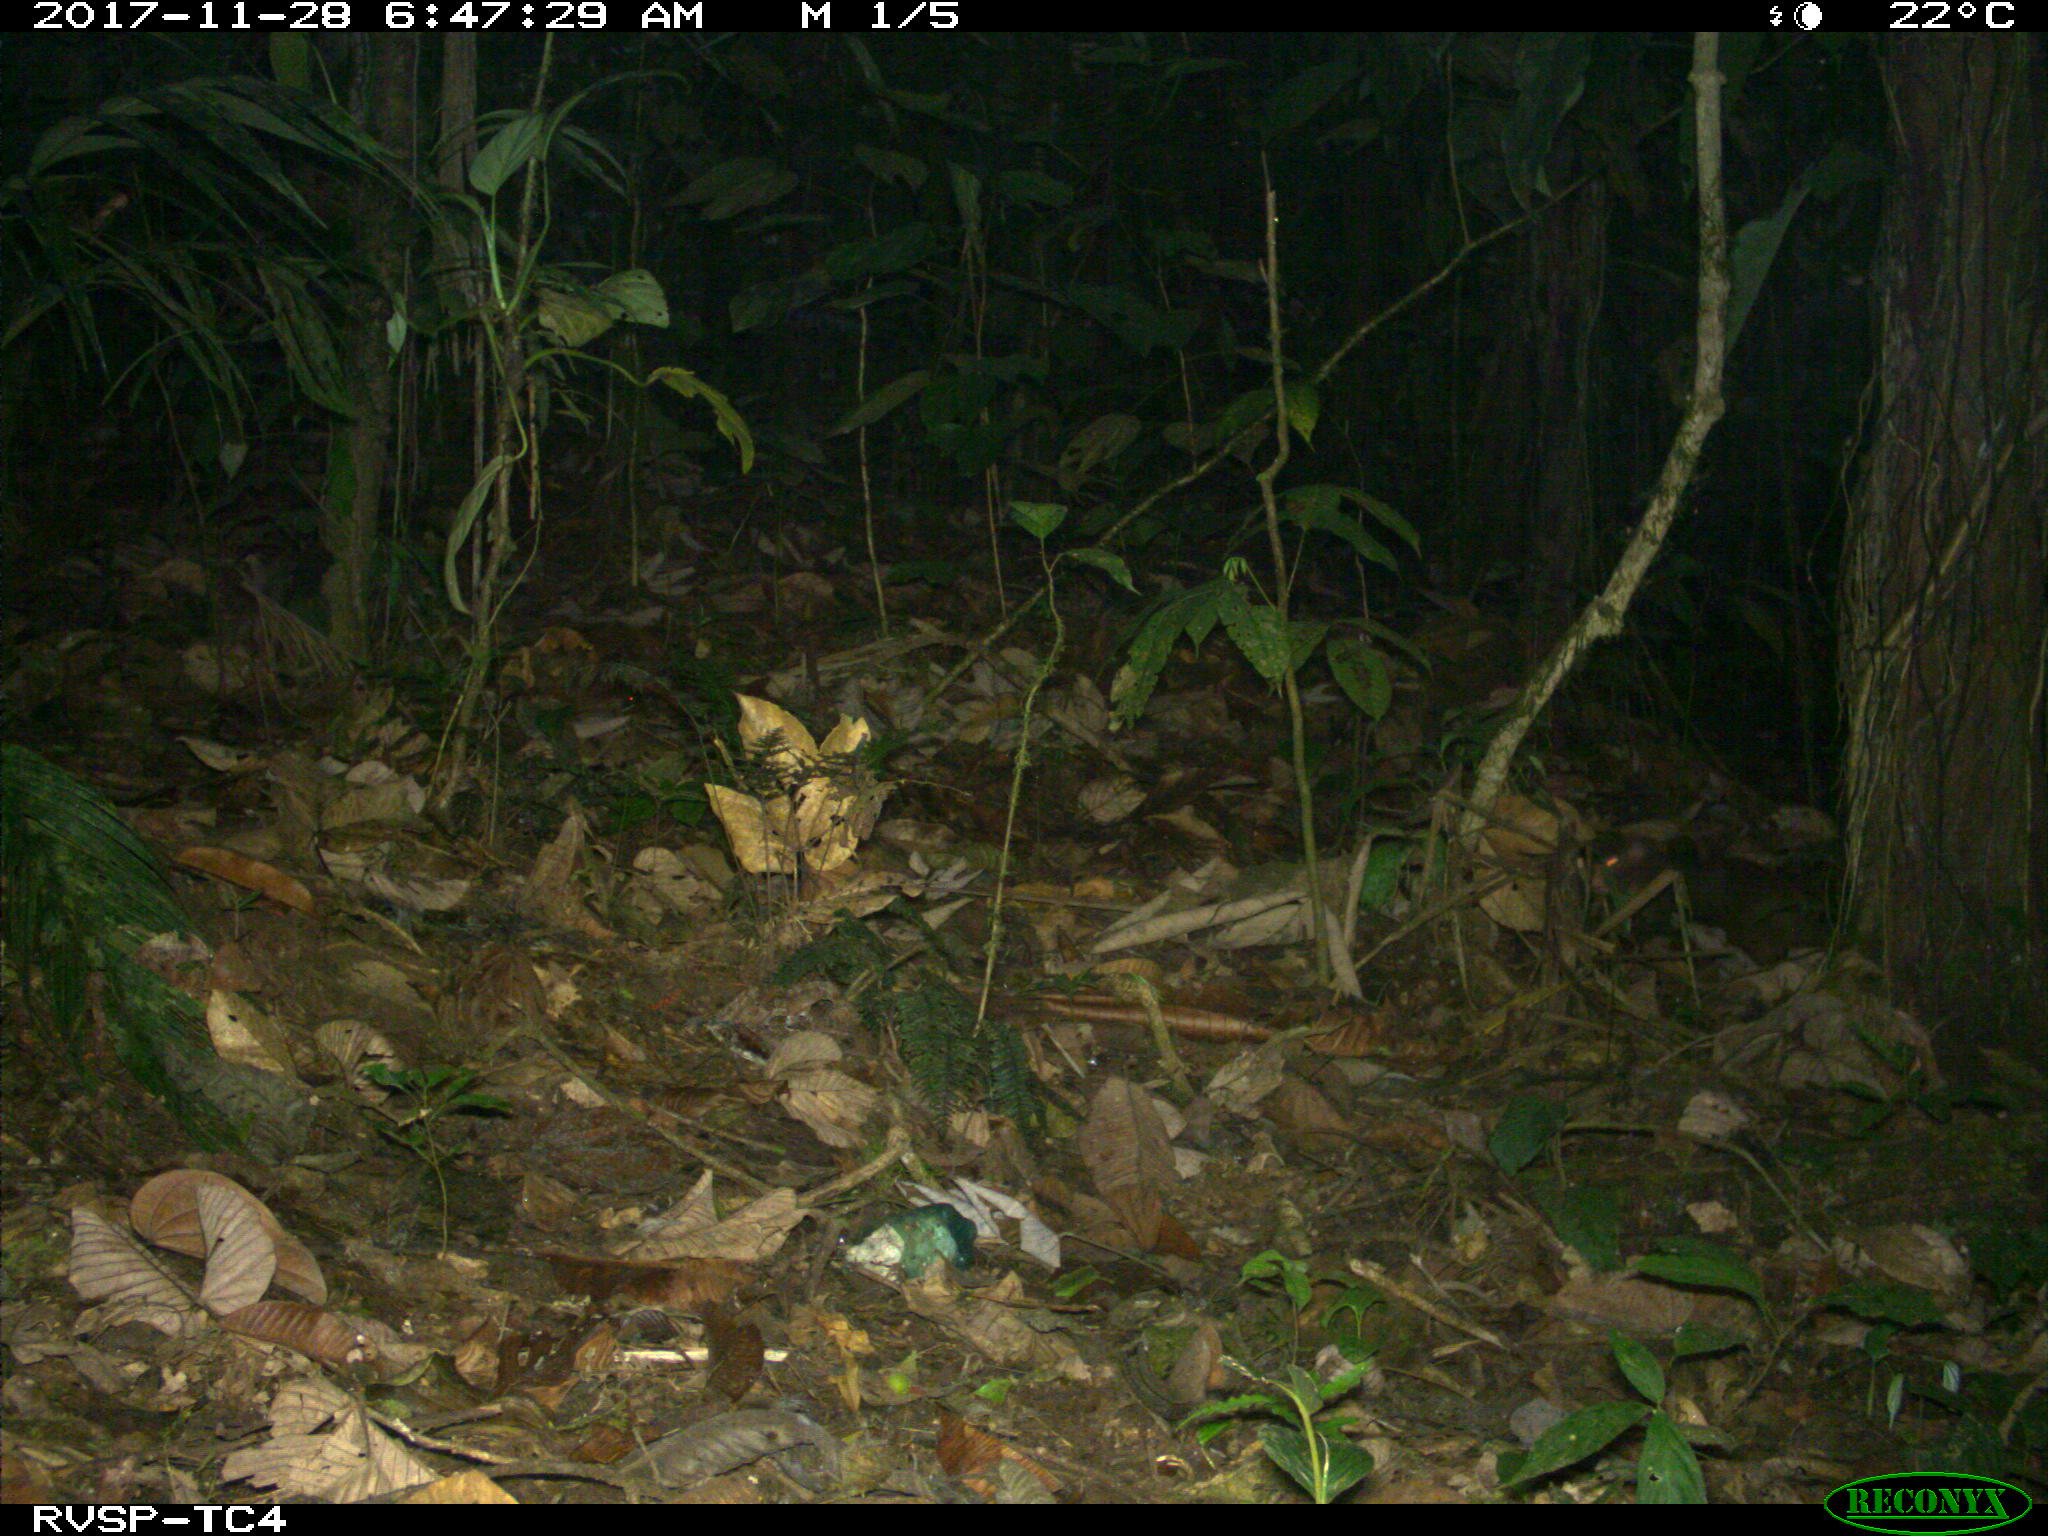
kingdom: Animalia
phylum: Chordata
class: Mammalia
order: Rodentia
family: Dasyproctidae
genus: Dasyprocta
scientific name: Dasyprocta punctata
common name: Central american agouti
